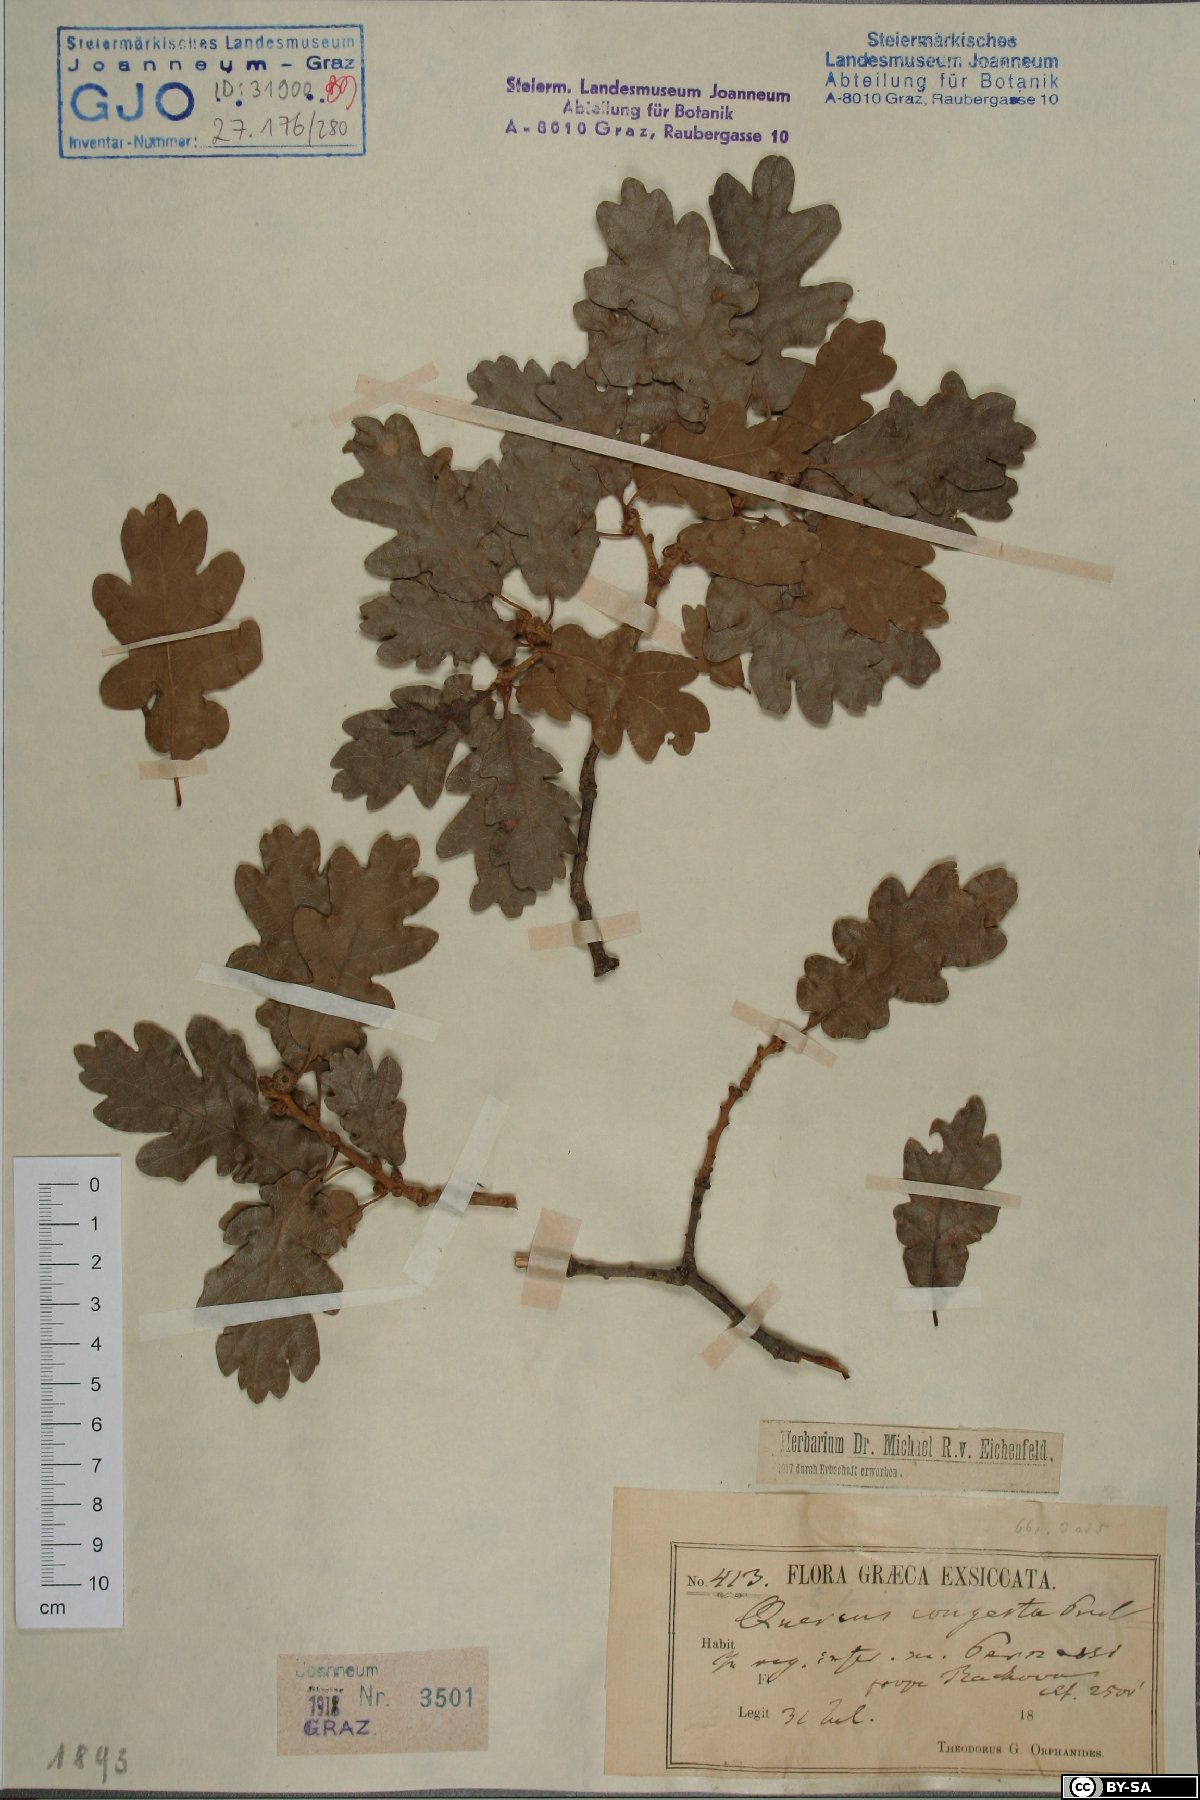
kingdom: Plantae
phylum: Tracheophyta
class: Magnoliopsida
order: Fagales
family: Fagaceae
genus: Quercus
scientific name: Quercus congesta
